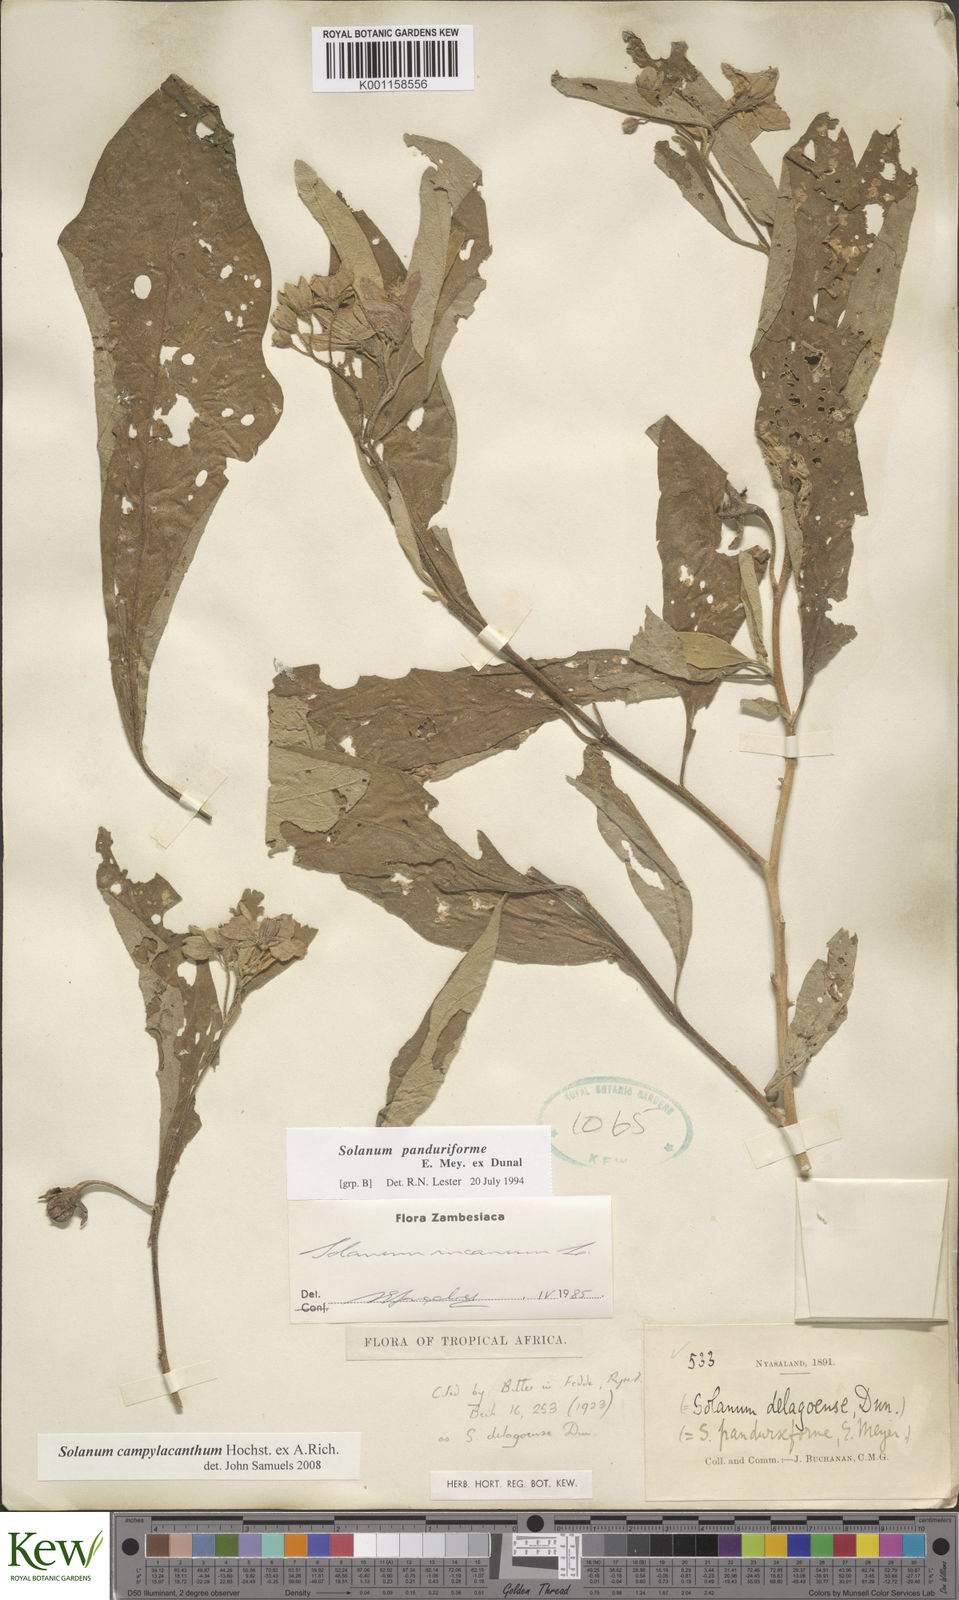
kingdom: Plantae
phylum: Tracheophyta
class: Magnoliopsida
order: Solanales
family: Solanaceae
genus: Solanum
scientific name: Solanum campylacanthum
